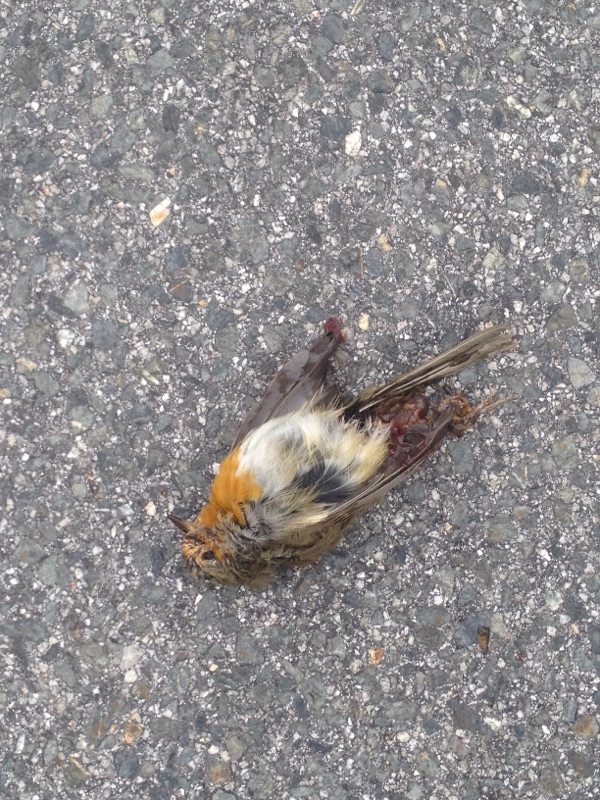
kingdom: Animalia
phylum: Chordata
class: Aves
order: Passeriformes
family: Muscicapidae
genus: Erithacus
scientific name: Erithacus rubecula
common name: European robin
